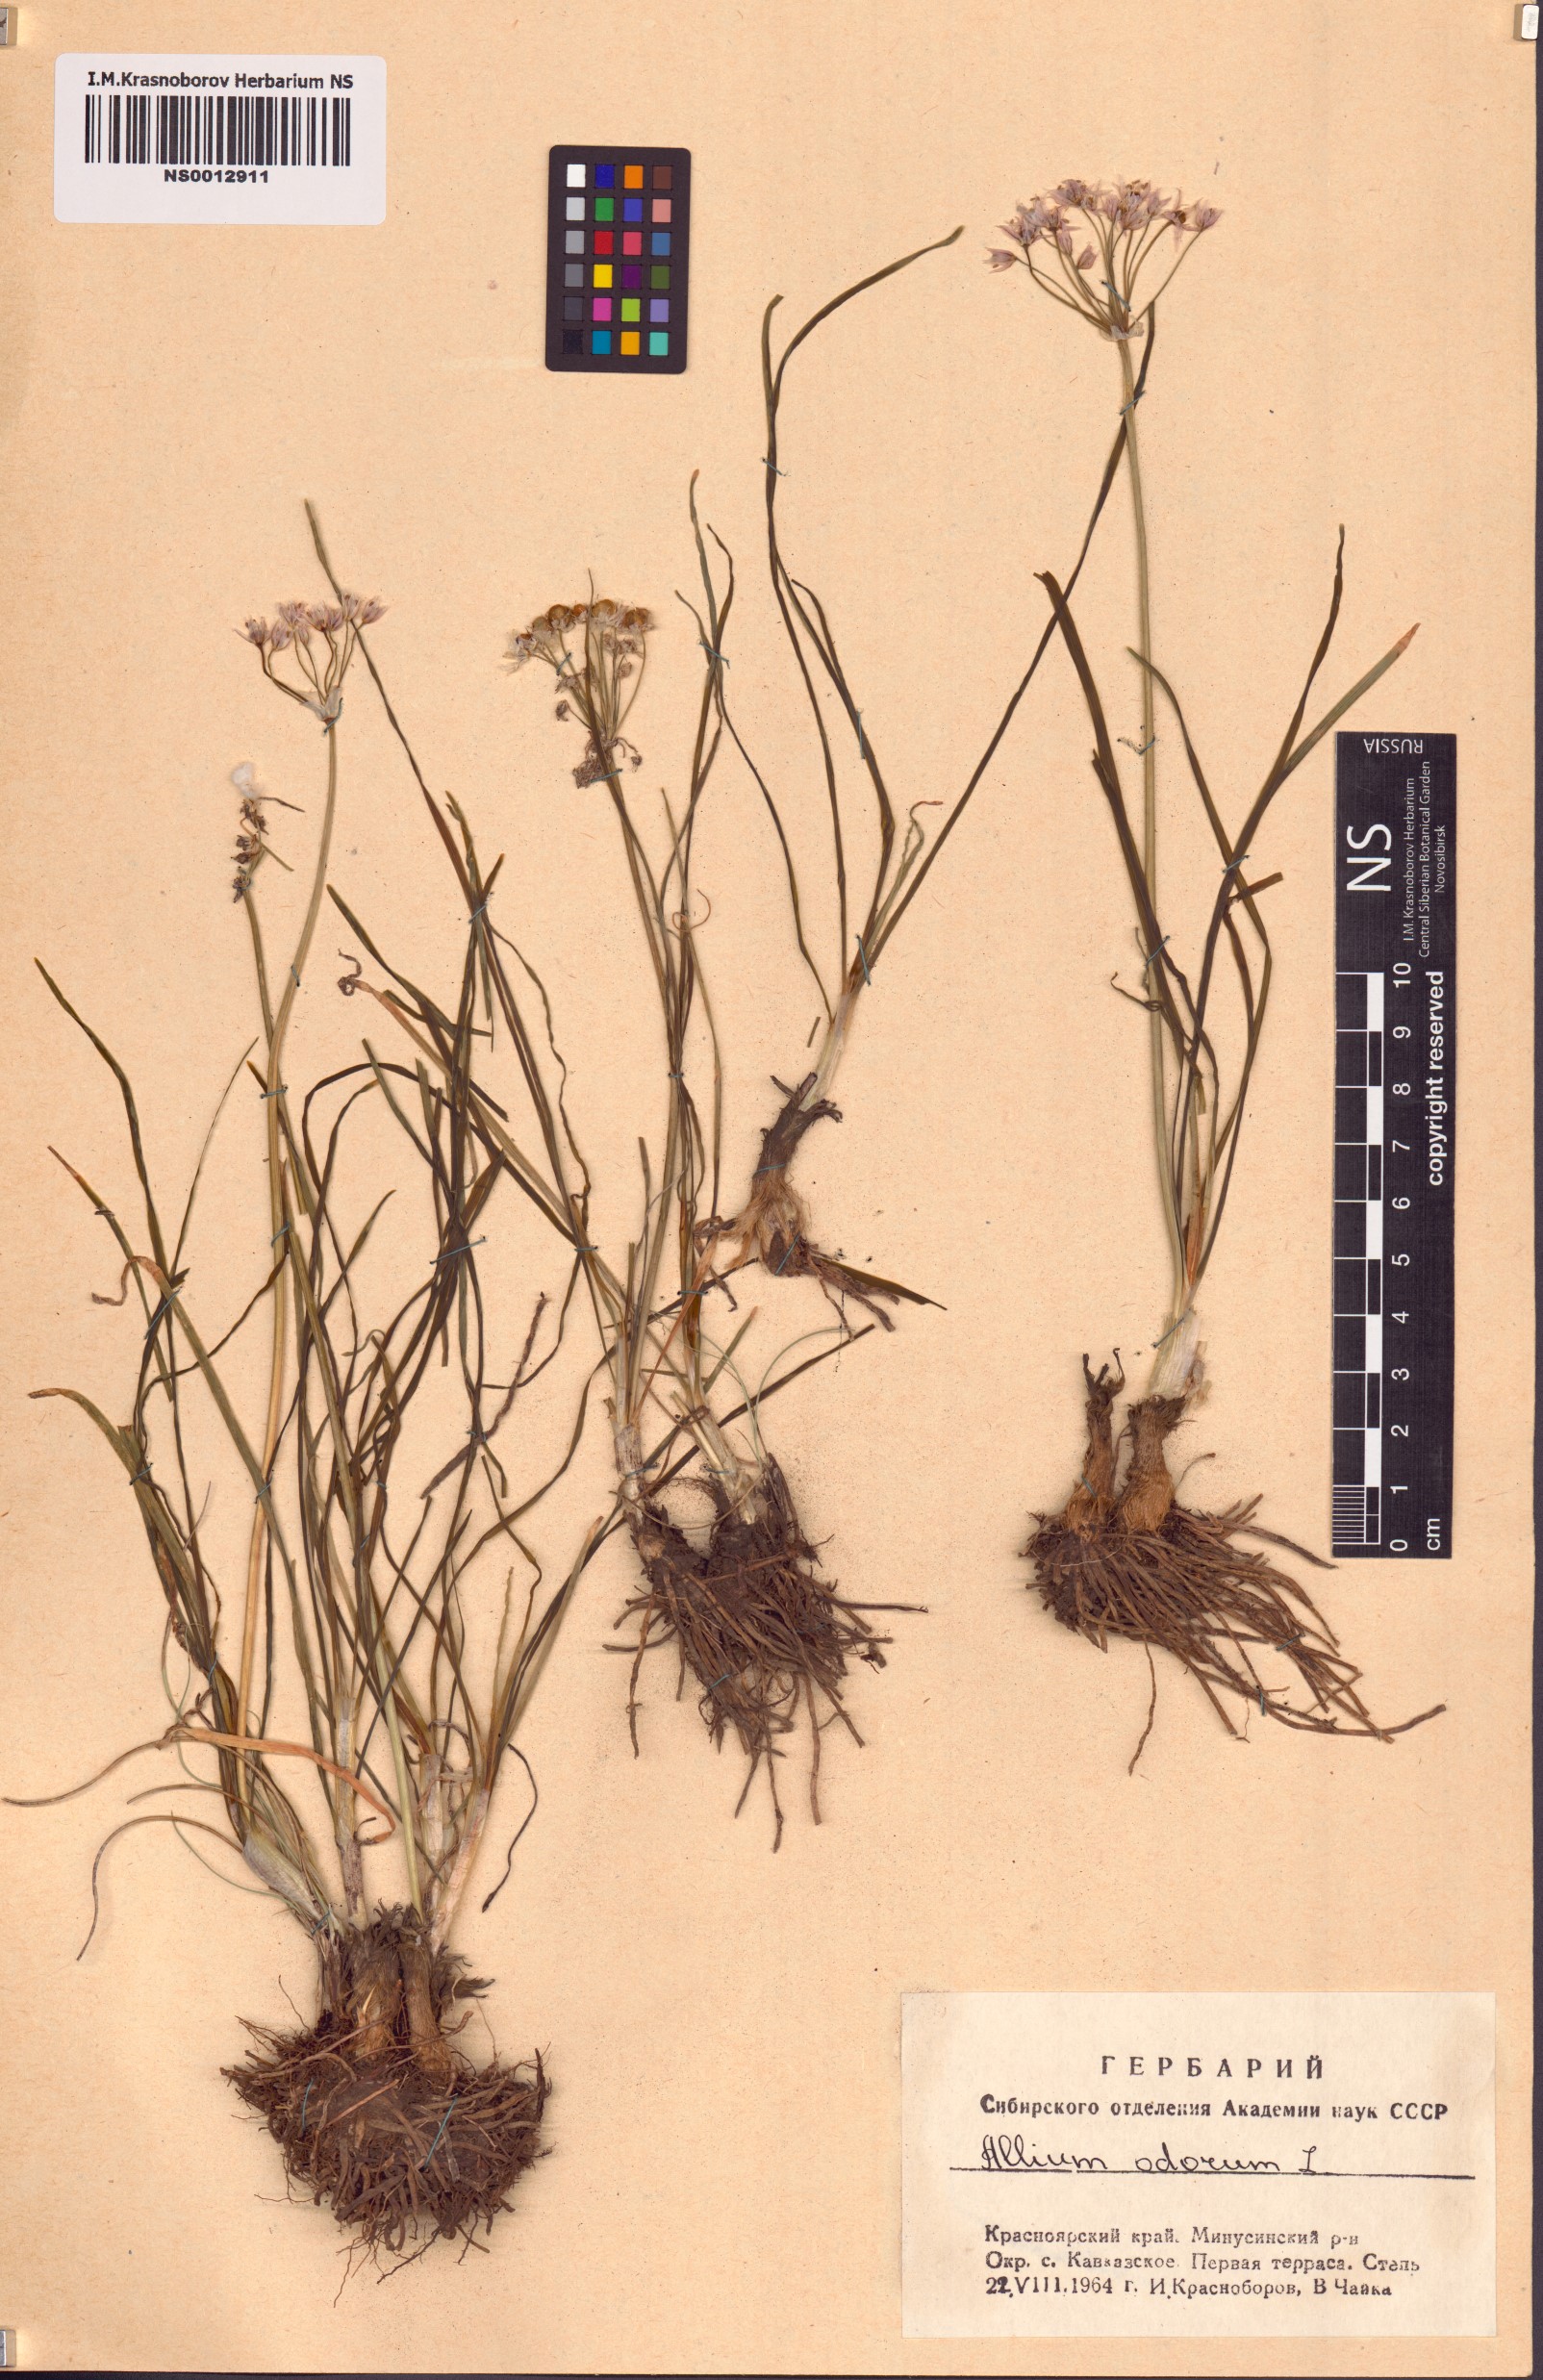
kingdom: Plantae
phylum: Tracheophyta
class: Liliopsida
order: Asparagales
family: Amaryllidaceae
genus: Allium
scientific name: Allium ramosum
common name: Fragrant garlic
